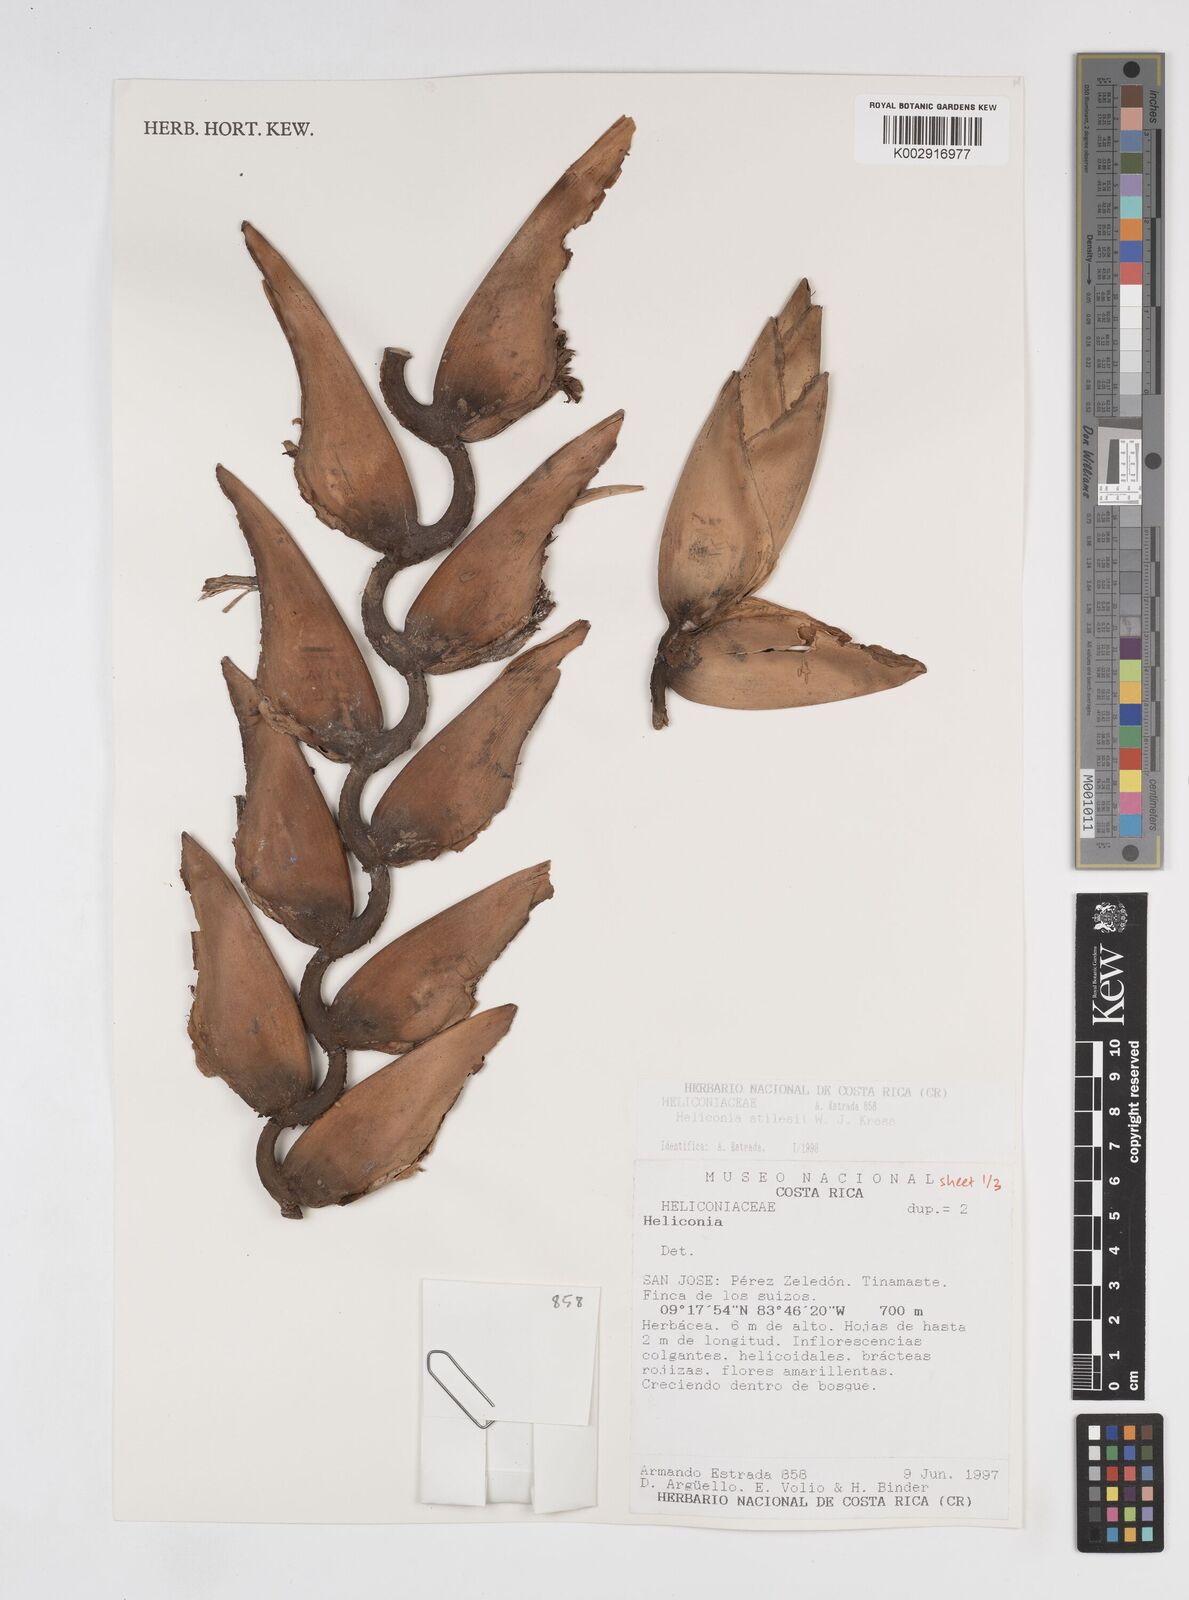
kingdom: Plantae
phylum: Tracheophyta
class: Liliopsida
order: Zingiberales
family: Heliconiaceae
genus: Heliconia
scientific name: Heliconia stilesii
